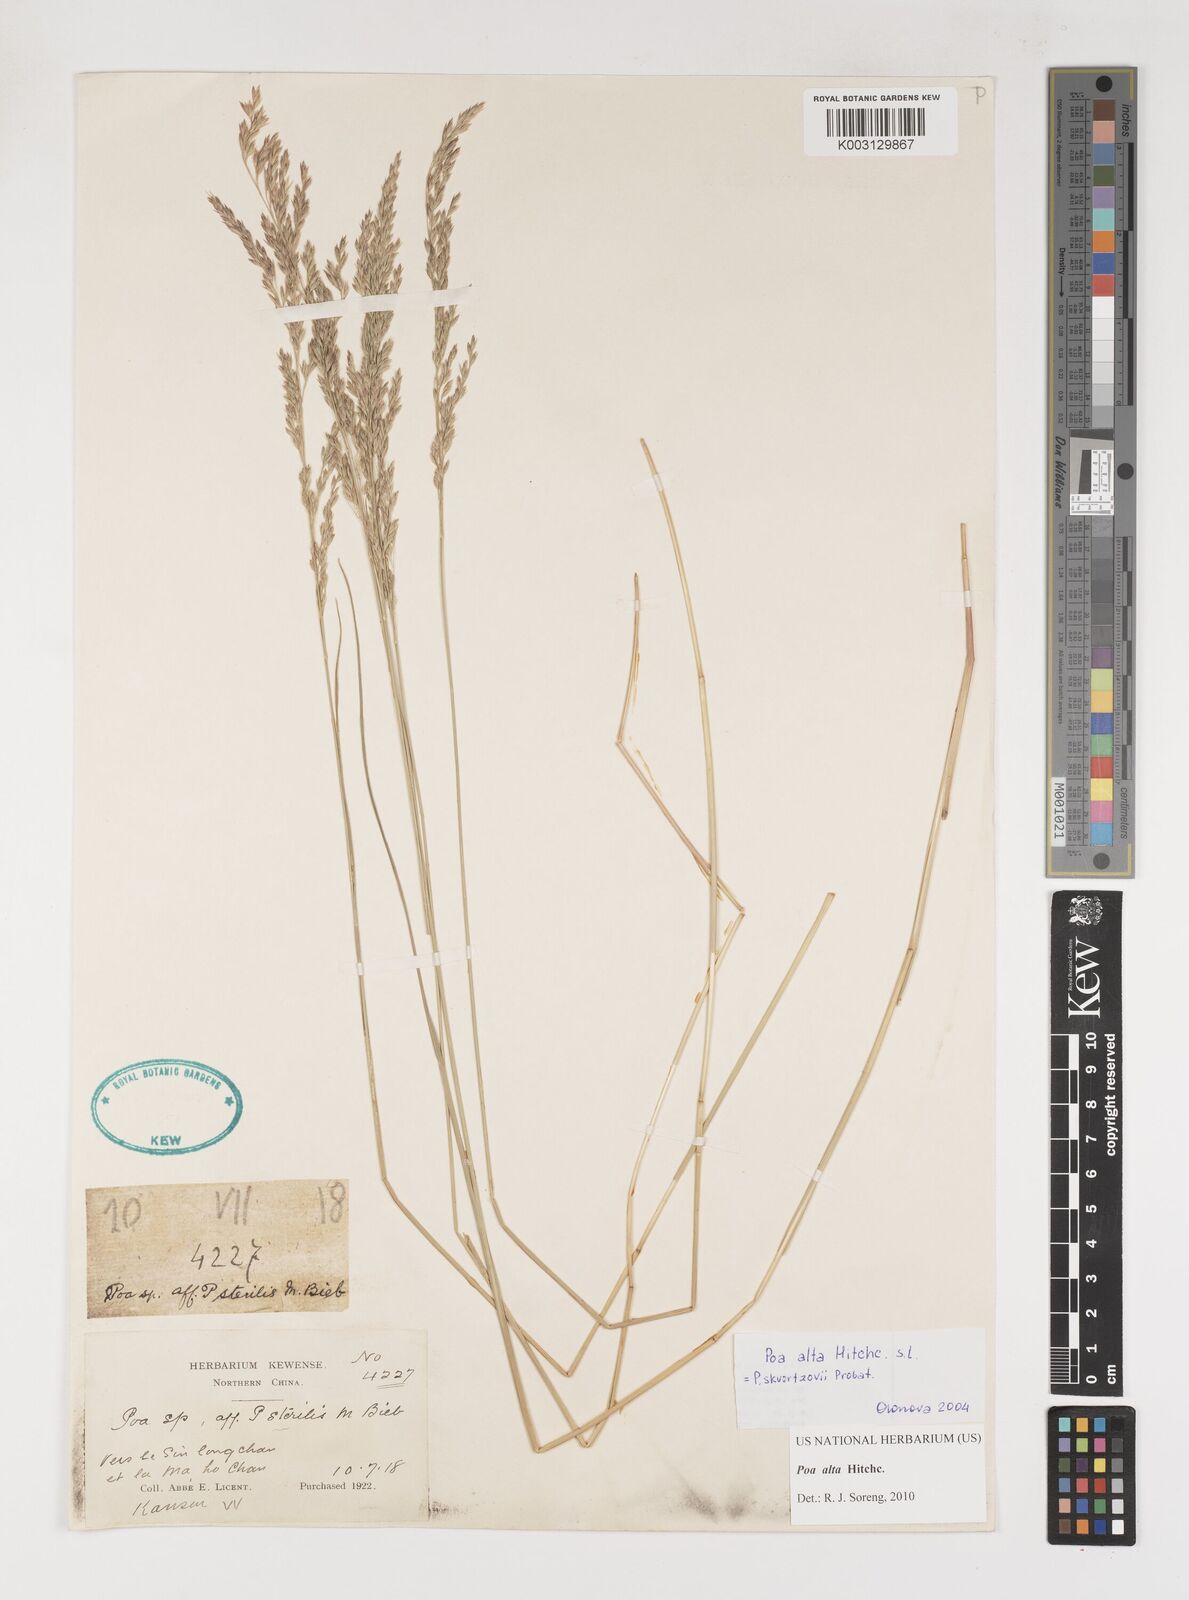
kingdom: Plantae
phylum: Tracheophyta
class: Liliopsida
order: Poales
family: Poaceae
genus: Poa
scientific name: Poa alta
